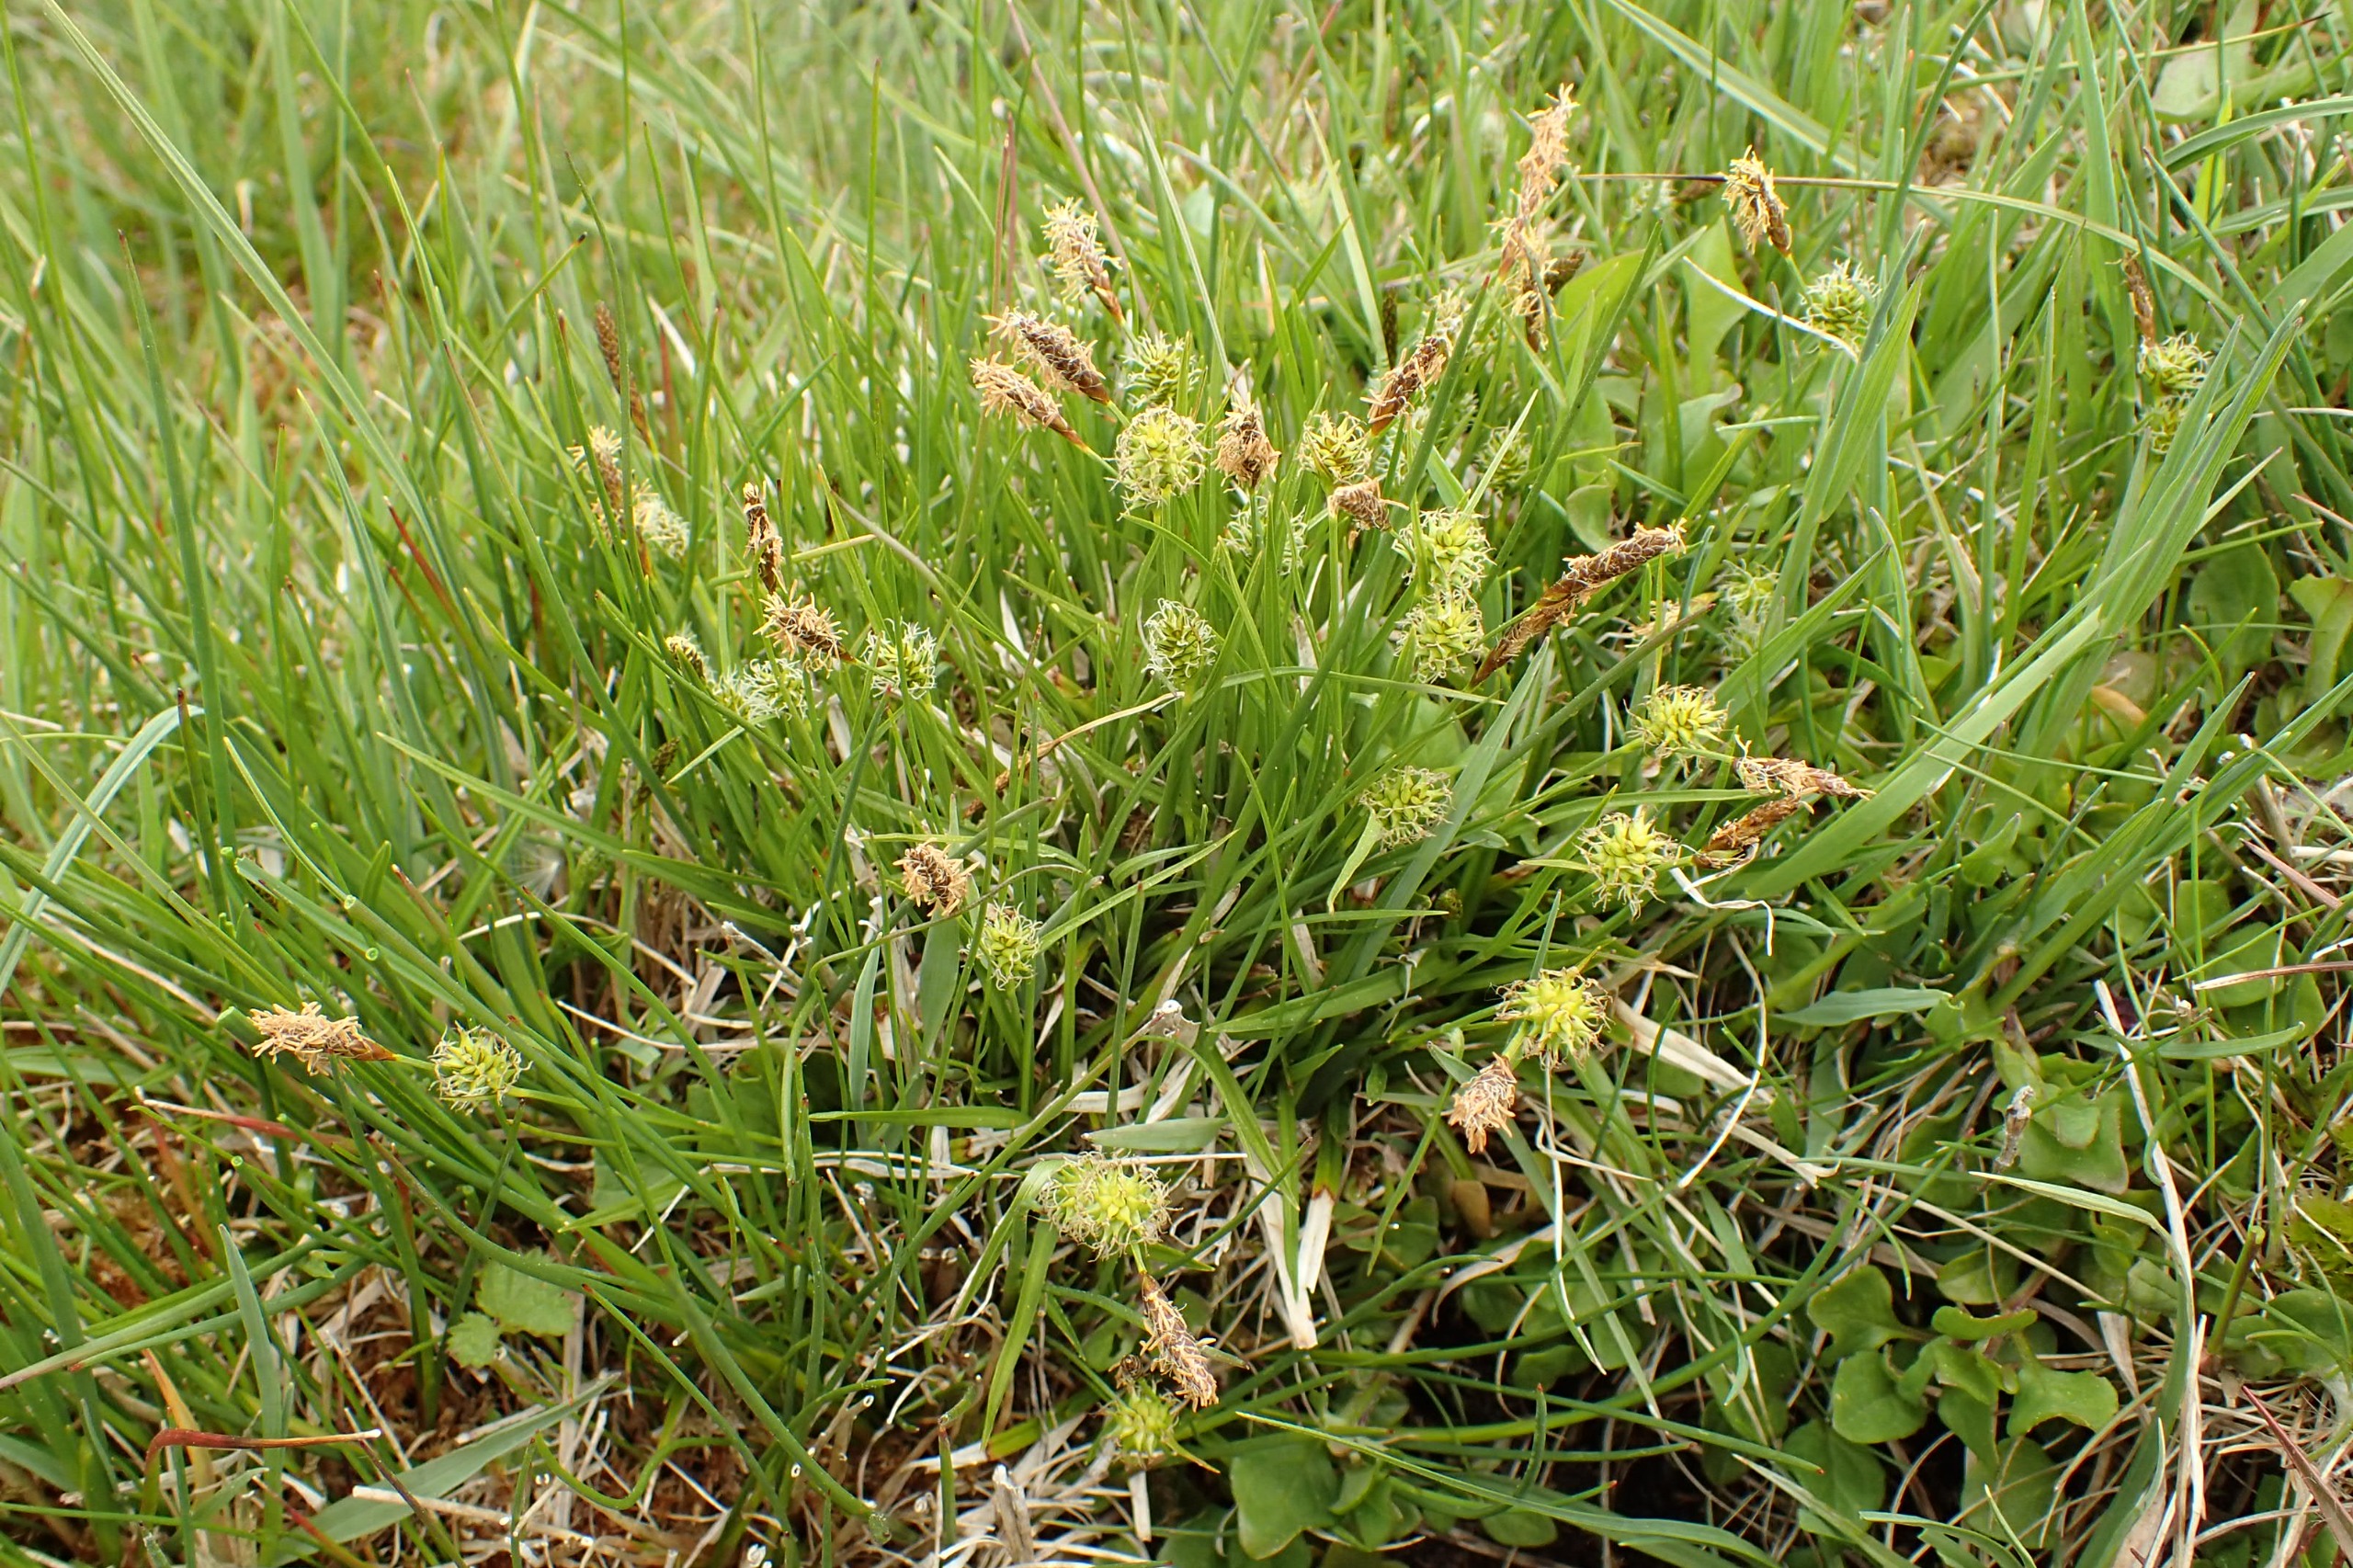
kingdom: Plantae
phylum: Tracheophyta
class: Liliopsida
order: Poales
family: Cyperaceae
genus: Carex
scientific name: Carex lepidocarpa
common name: Krognæb-star
